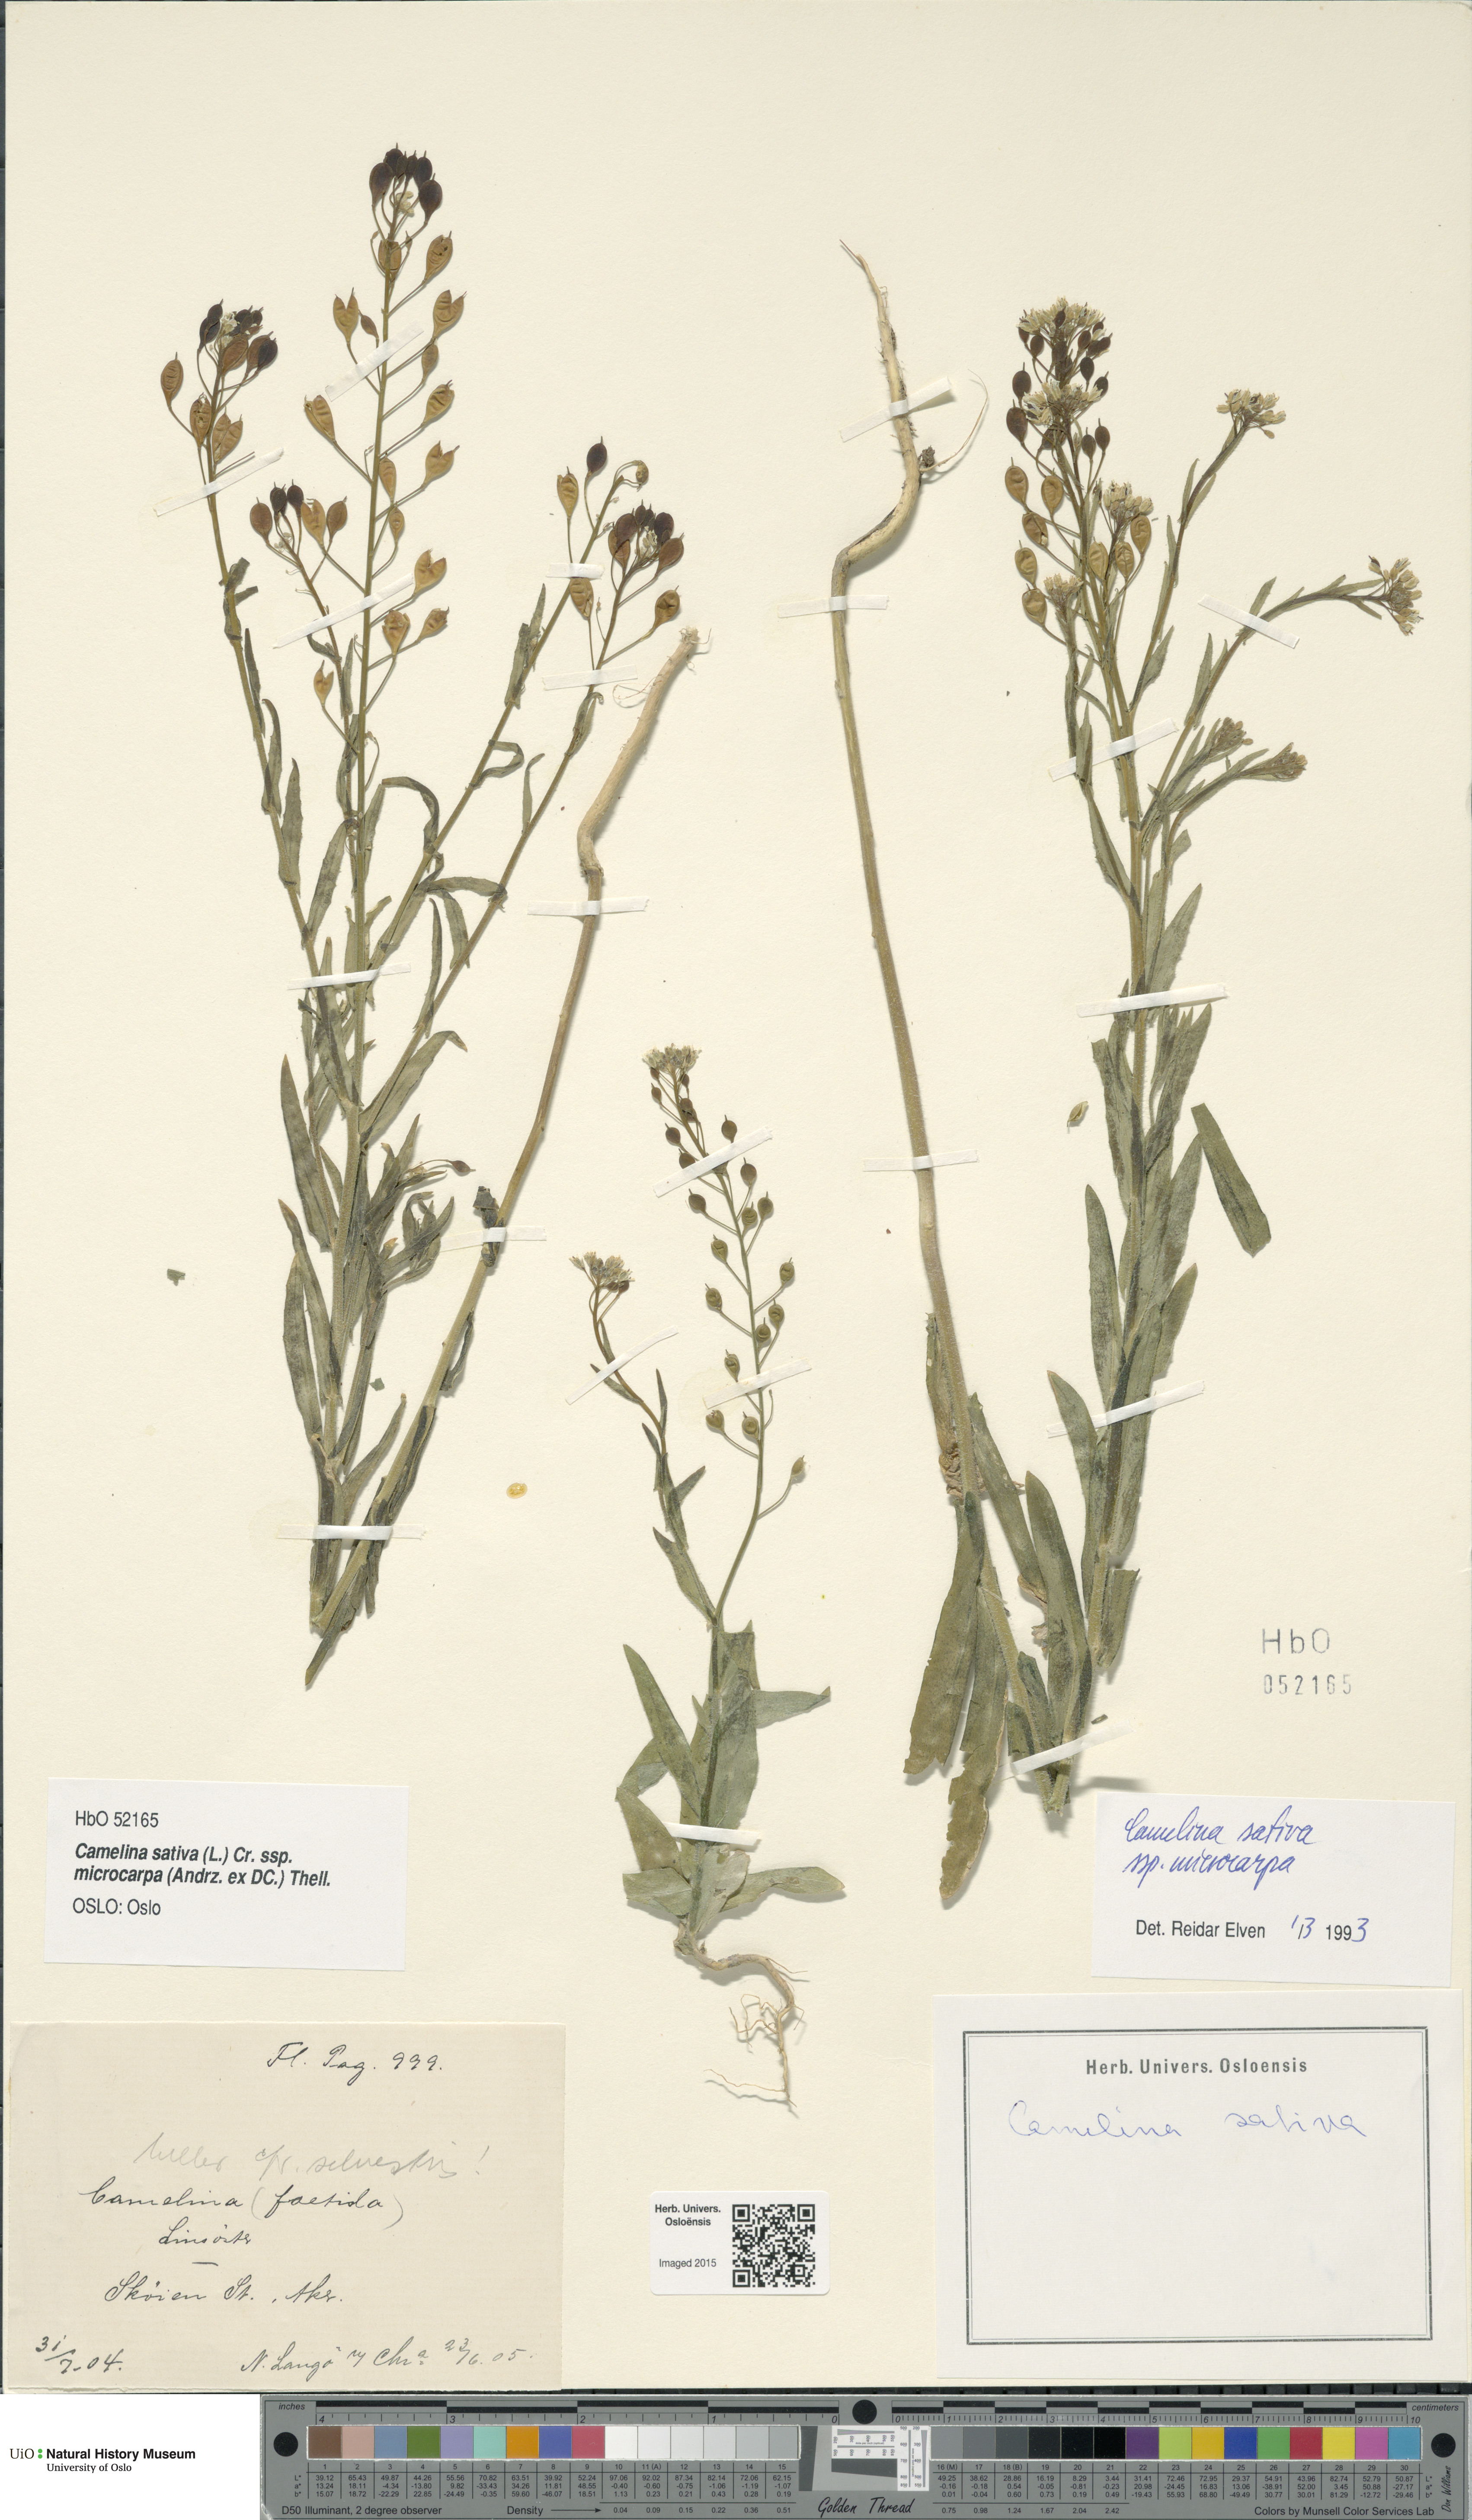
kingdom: Plantae
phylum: Tracheophyta
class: Magnoliopsida
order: Brassicales
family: Brassicaceae
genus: Camelina
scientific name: Camelina sativa
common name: Gold-of-pleasure
